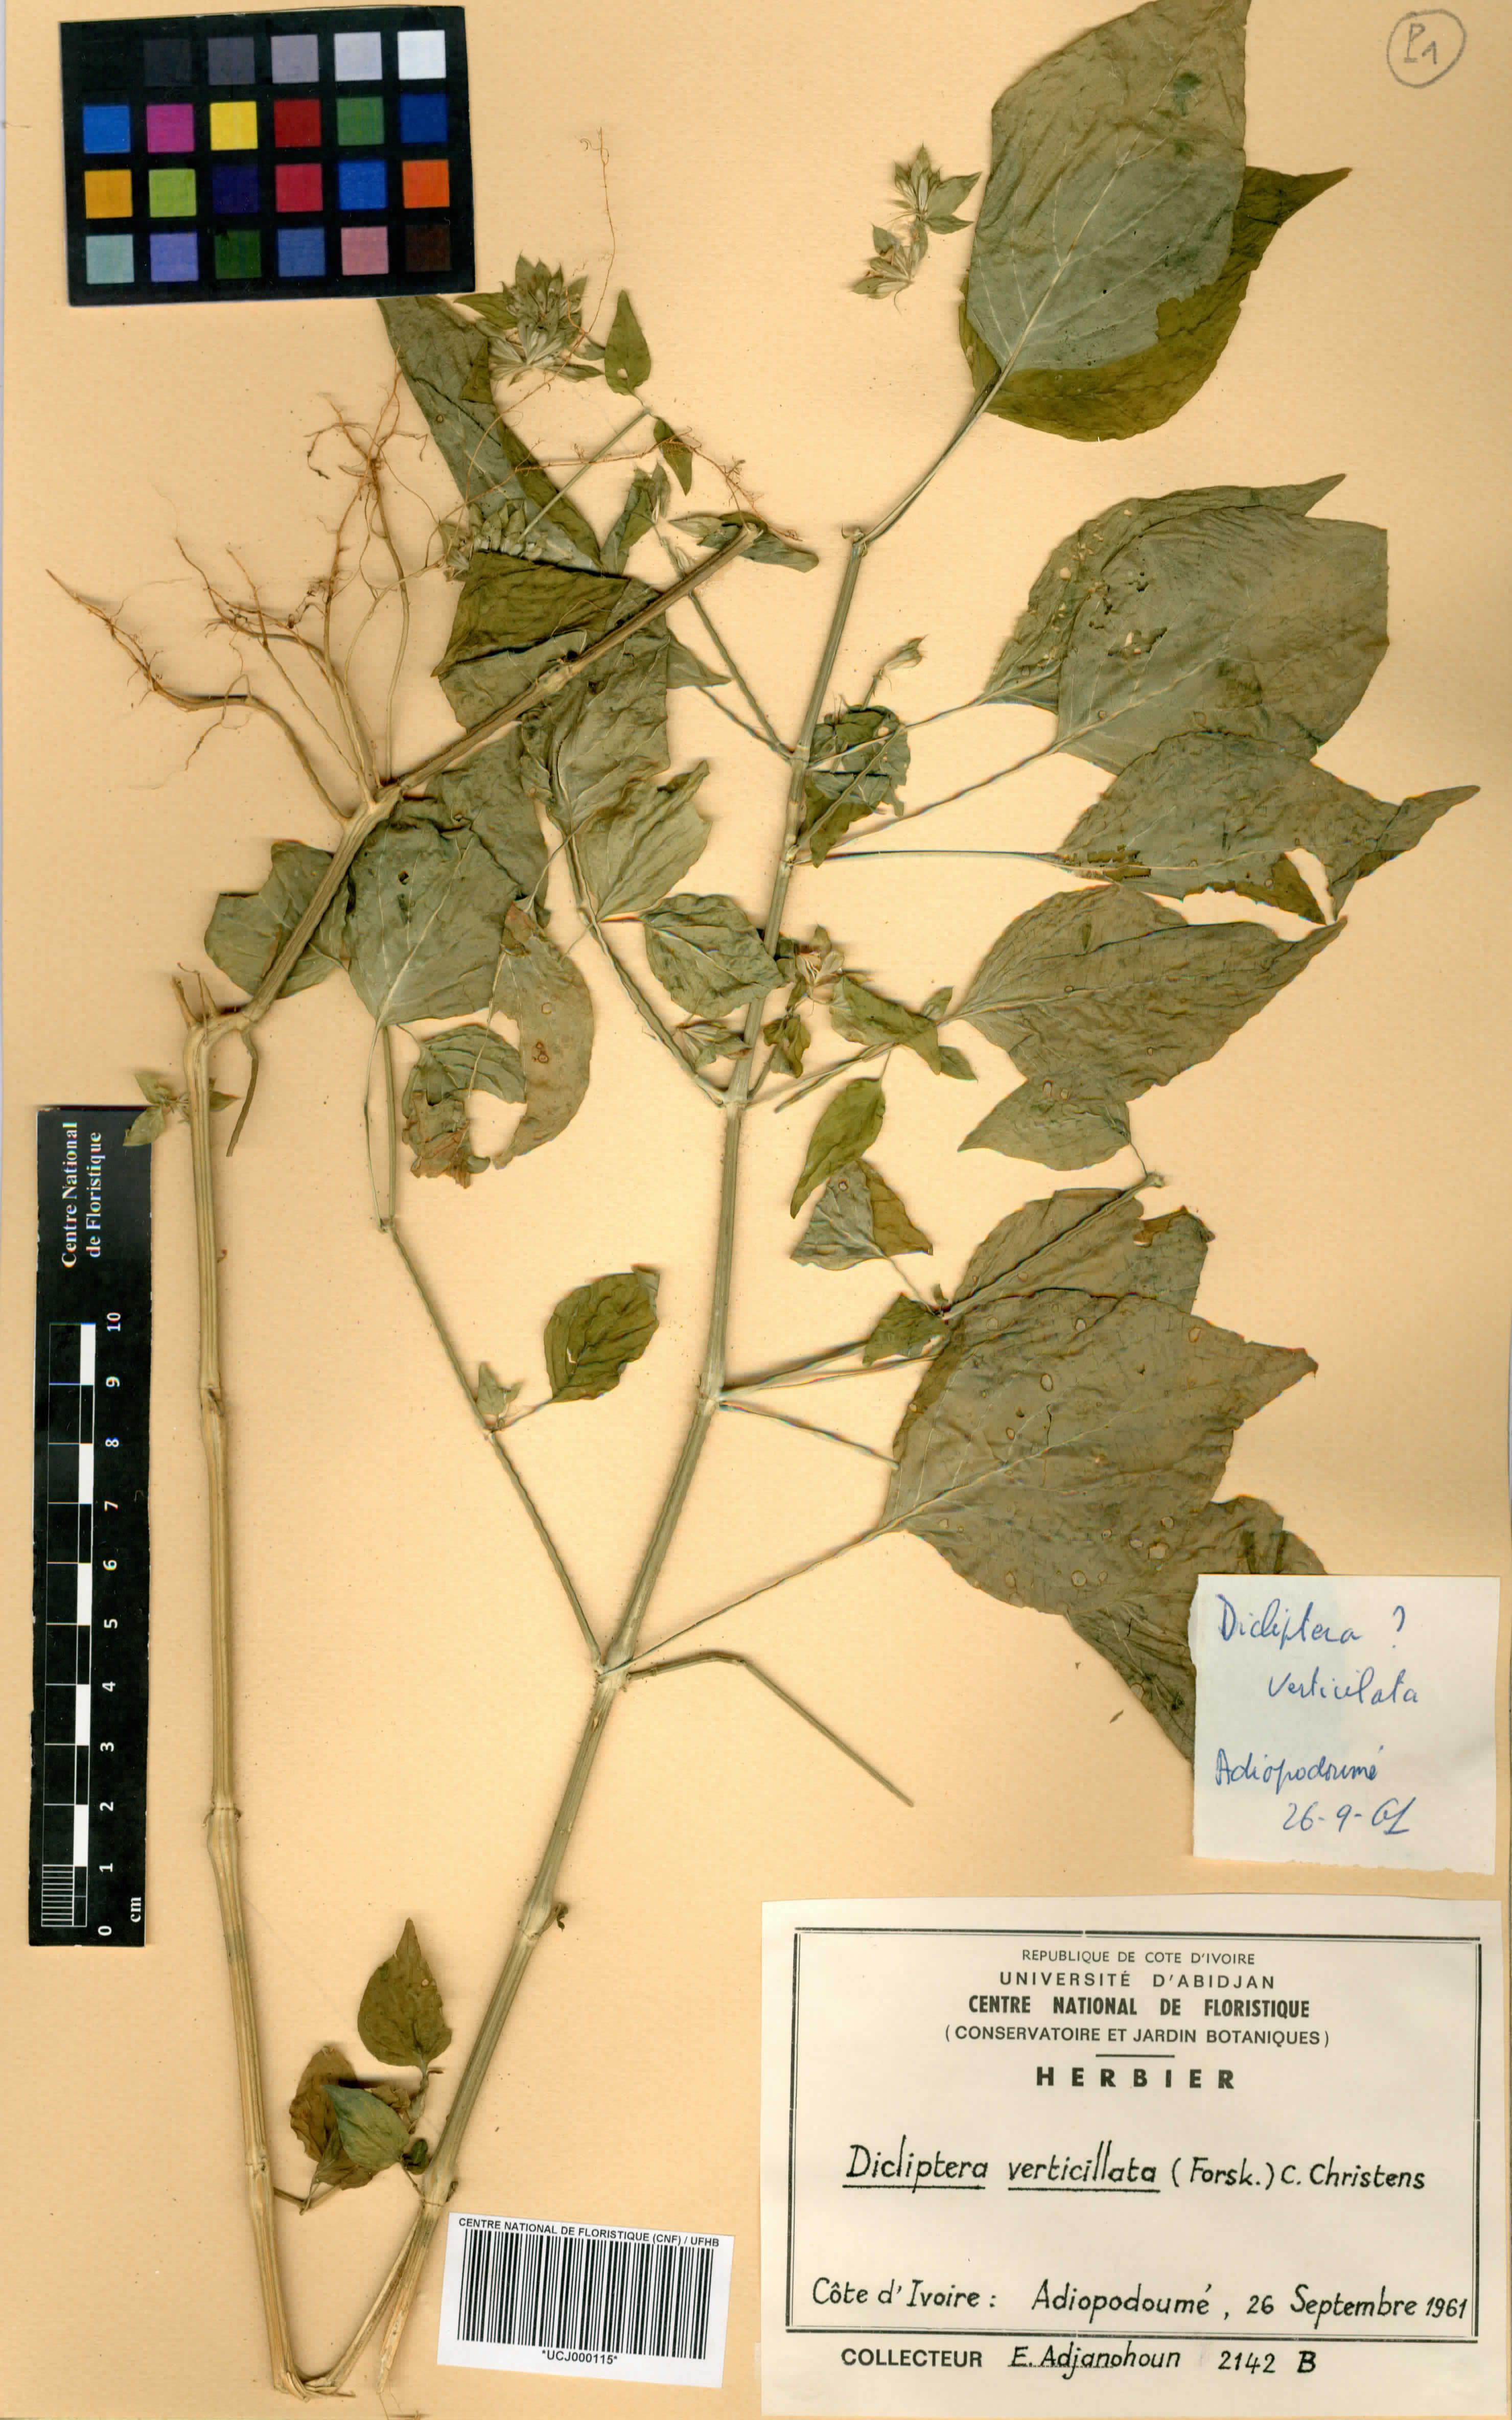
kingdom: Plantae
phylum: Tracheophyta
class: Magnoliopsida
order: Lamiales
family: Acanthaceae
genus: Dicliptera
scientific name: Dicliptera verticillata
